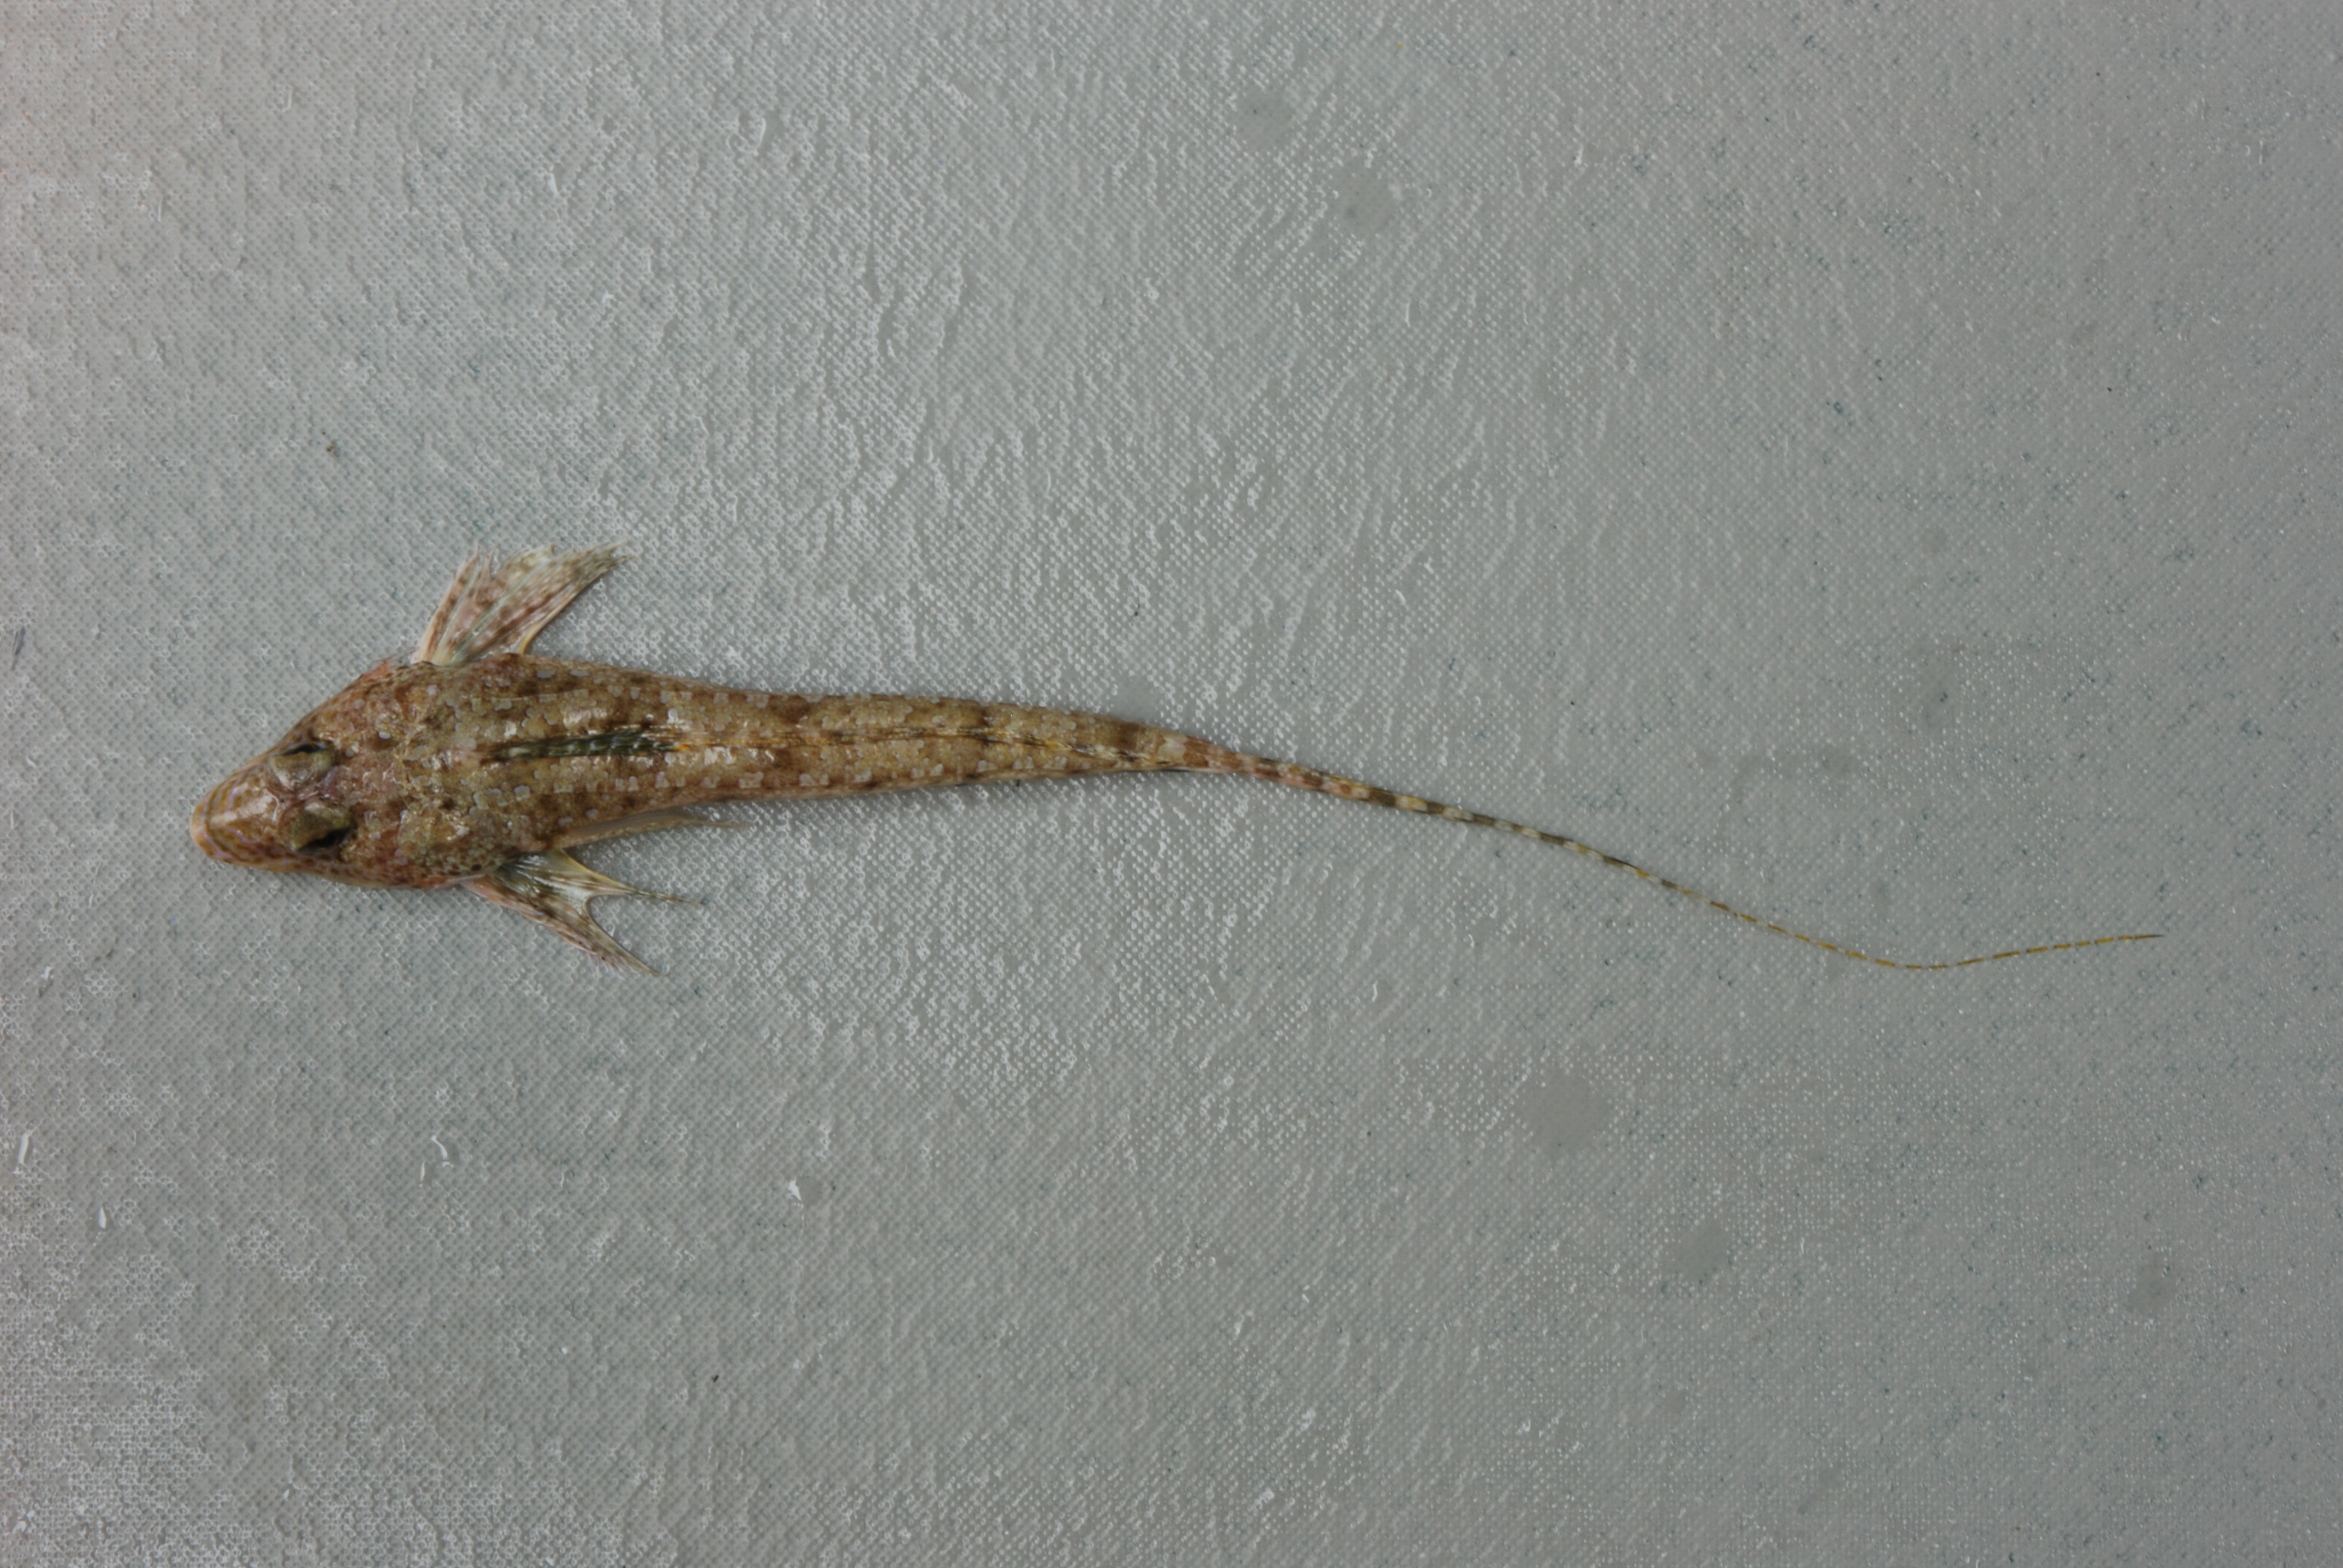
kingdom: Animalia
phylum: Chordata
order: Perciformes
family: Callionymidae
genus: Callionymus
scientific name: Callionymus gardineri
